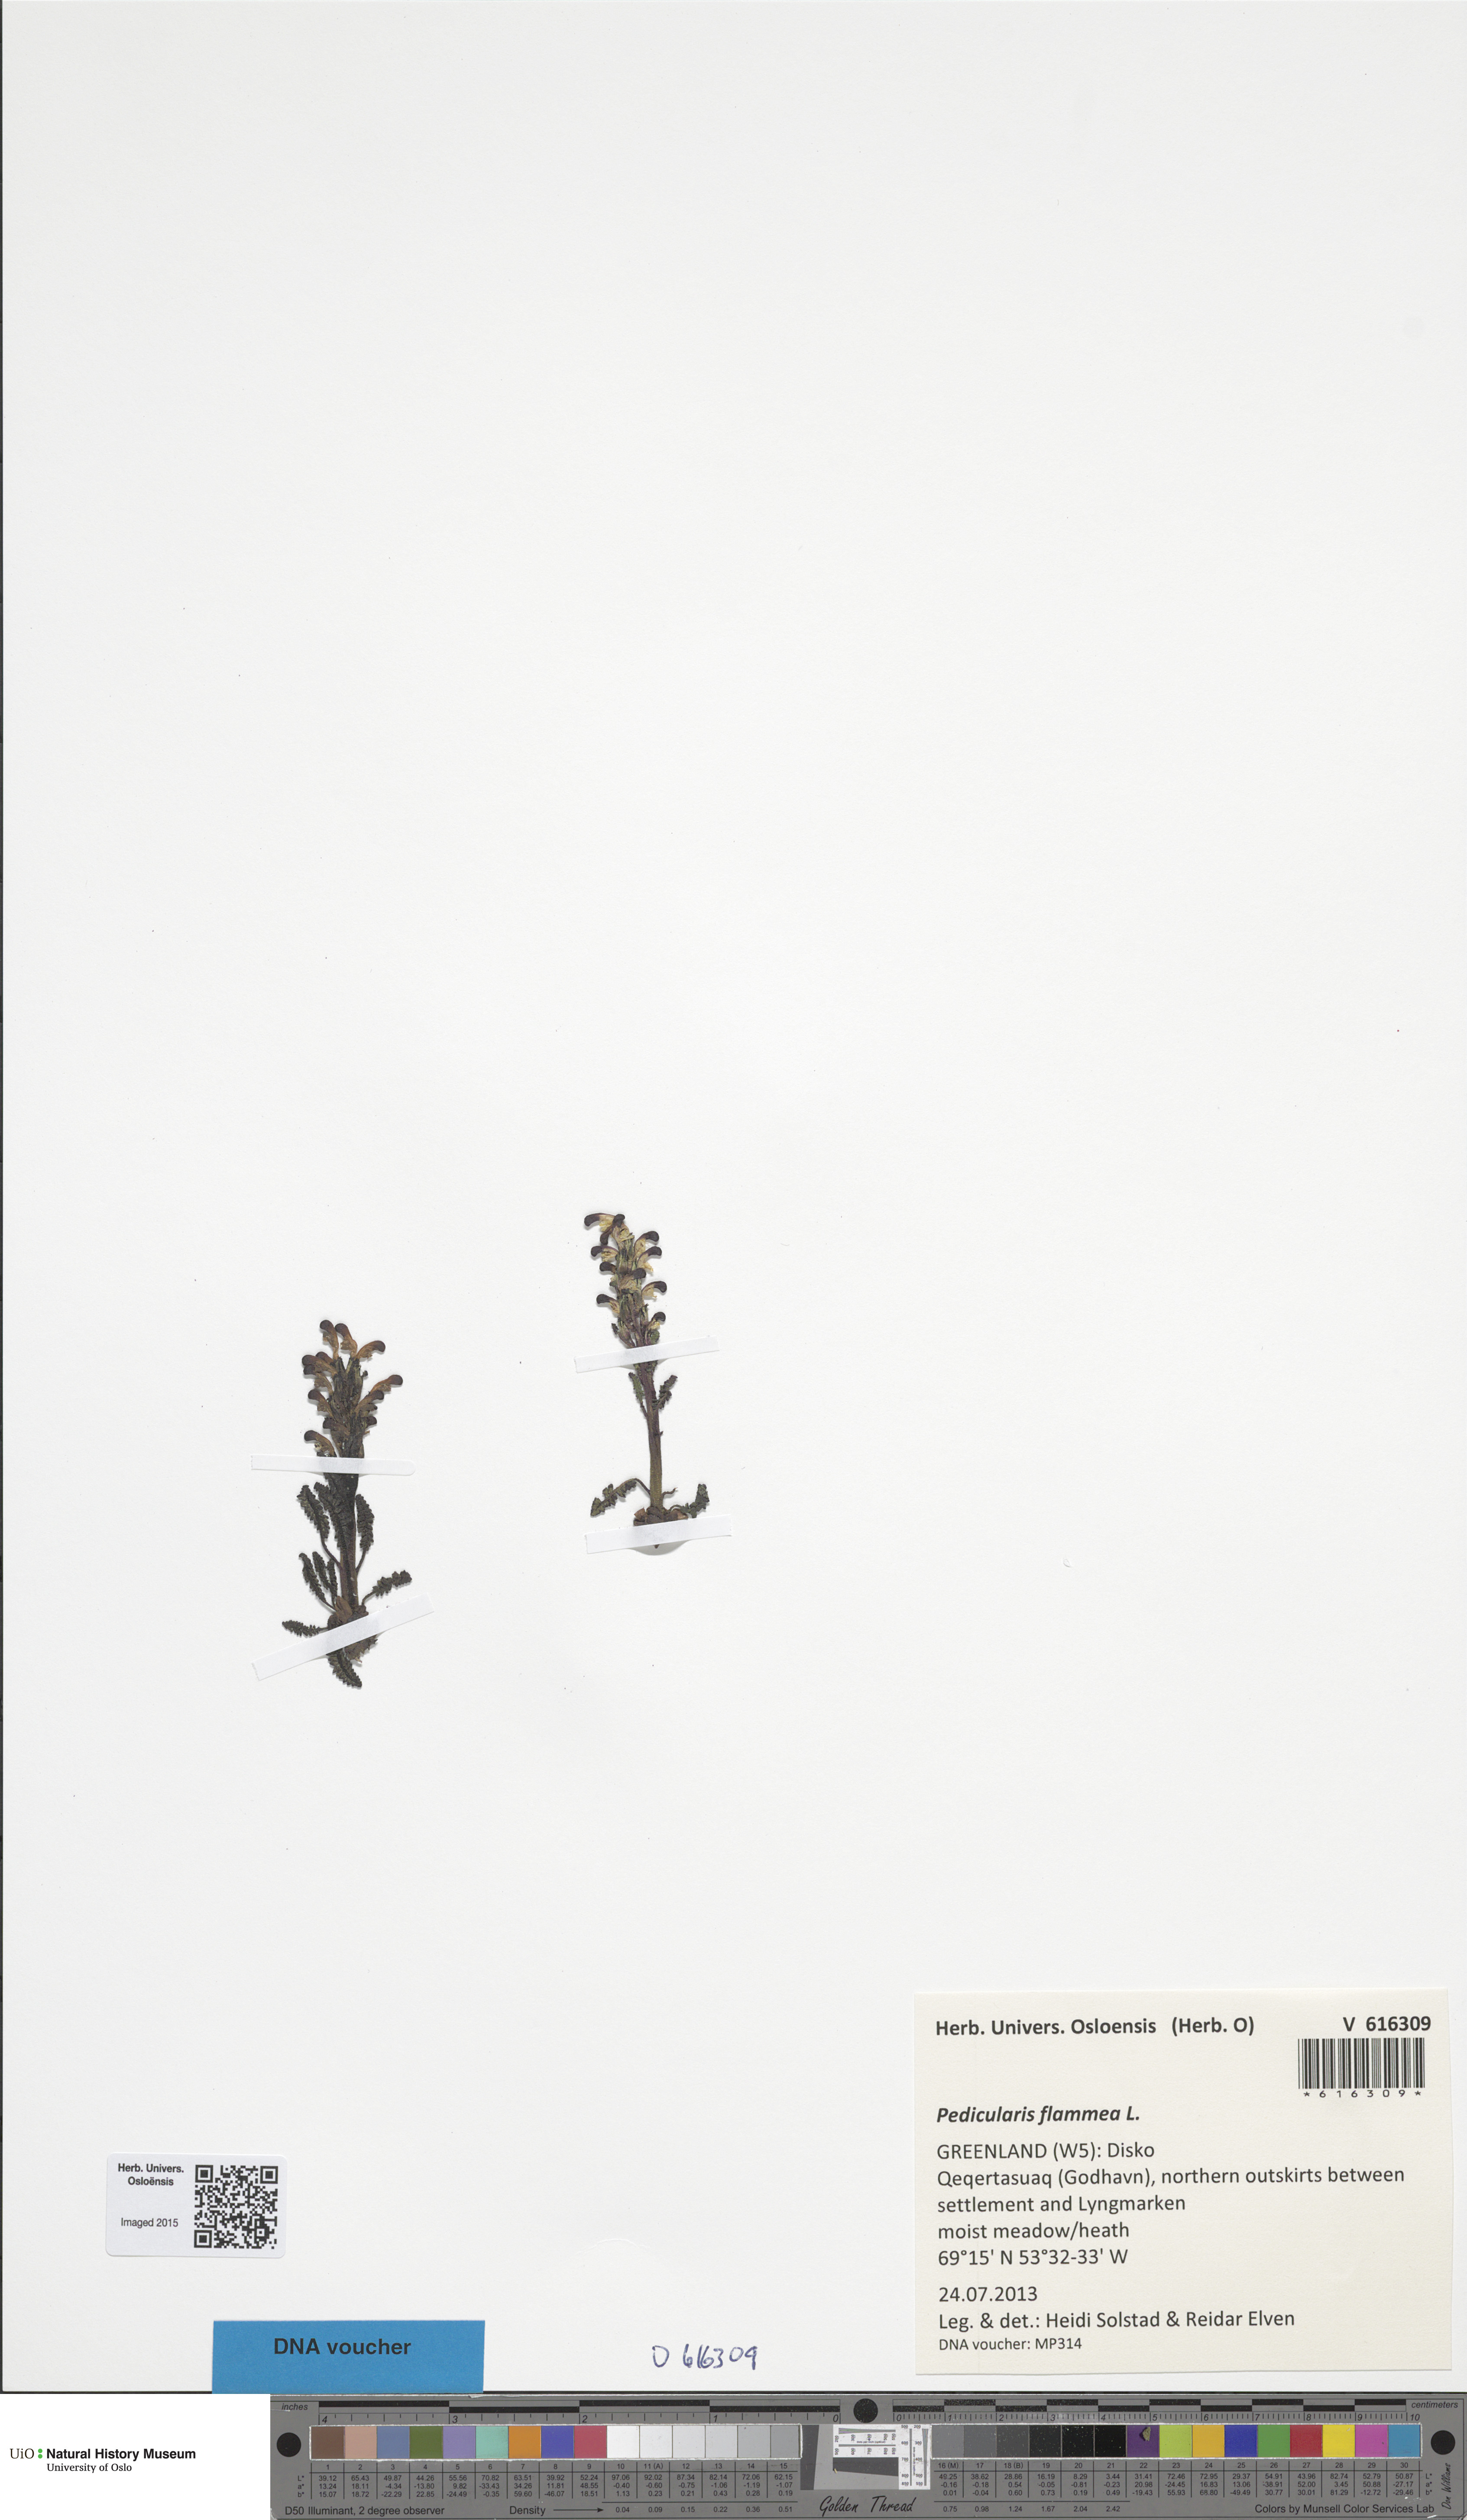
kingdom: Plantae
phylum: Tracheophyta
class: Magnoliopsida
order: Lamiales
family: Orobanchaceae
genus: Pedicularis
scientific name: Pedicularis flammea
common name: Flame-coloured lousewort
